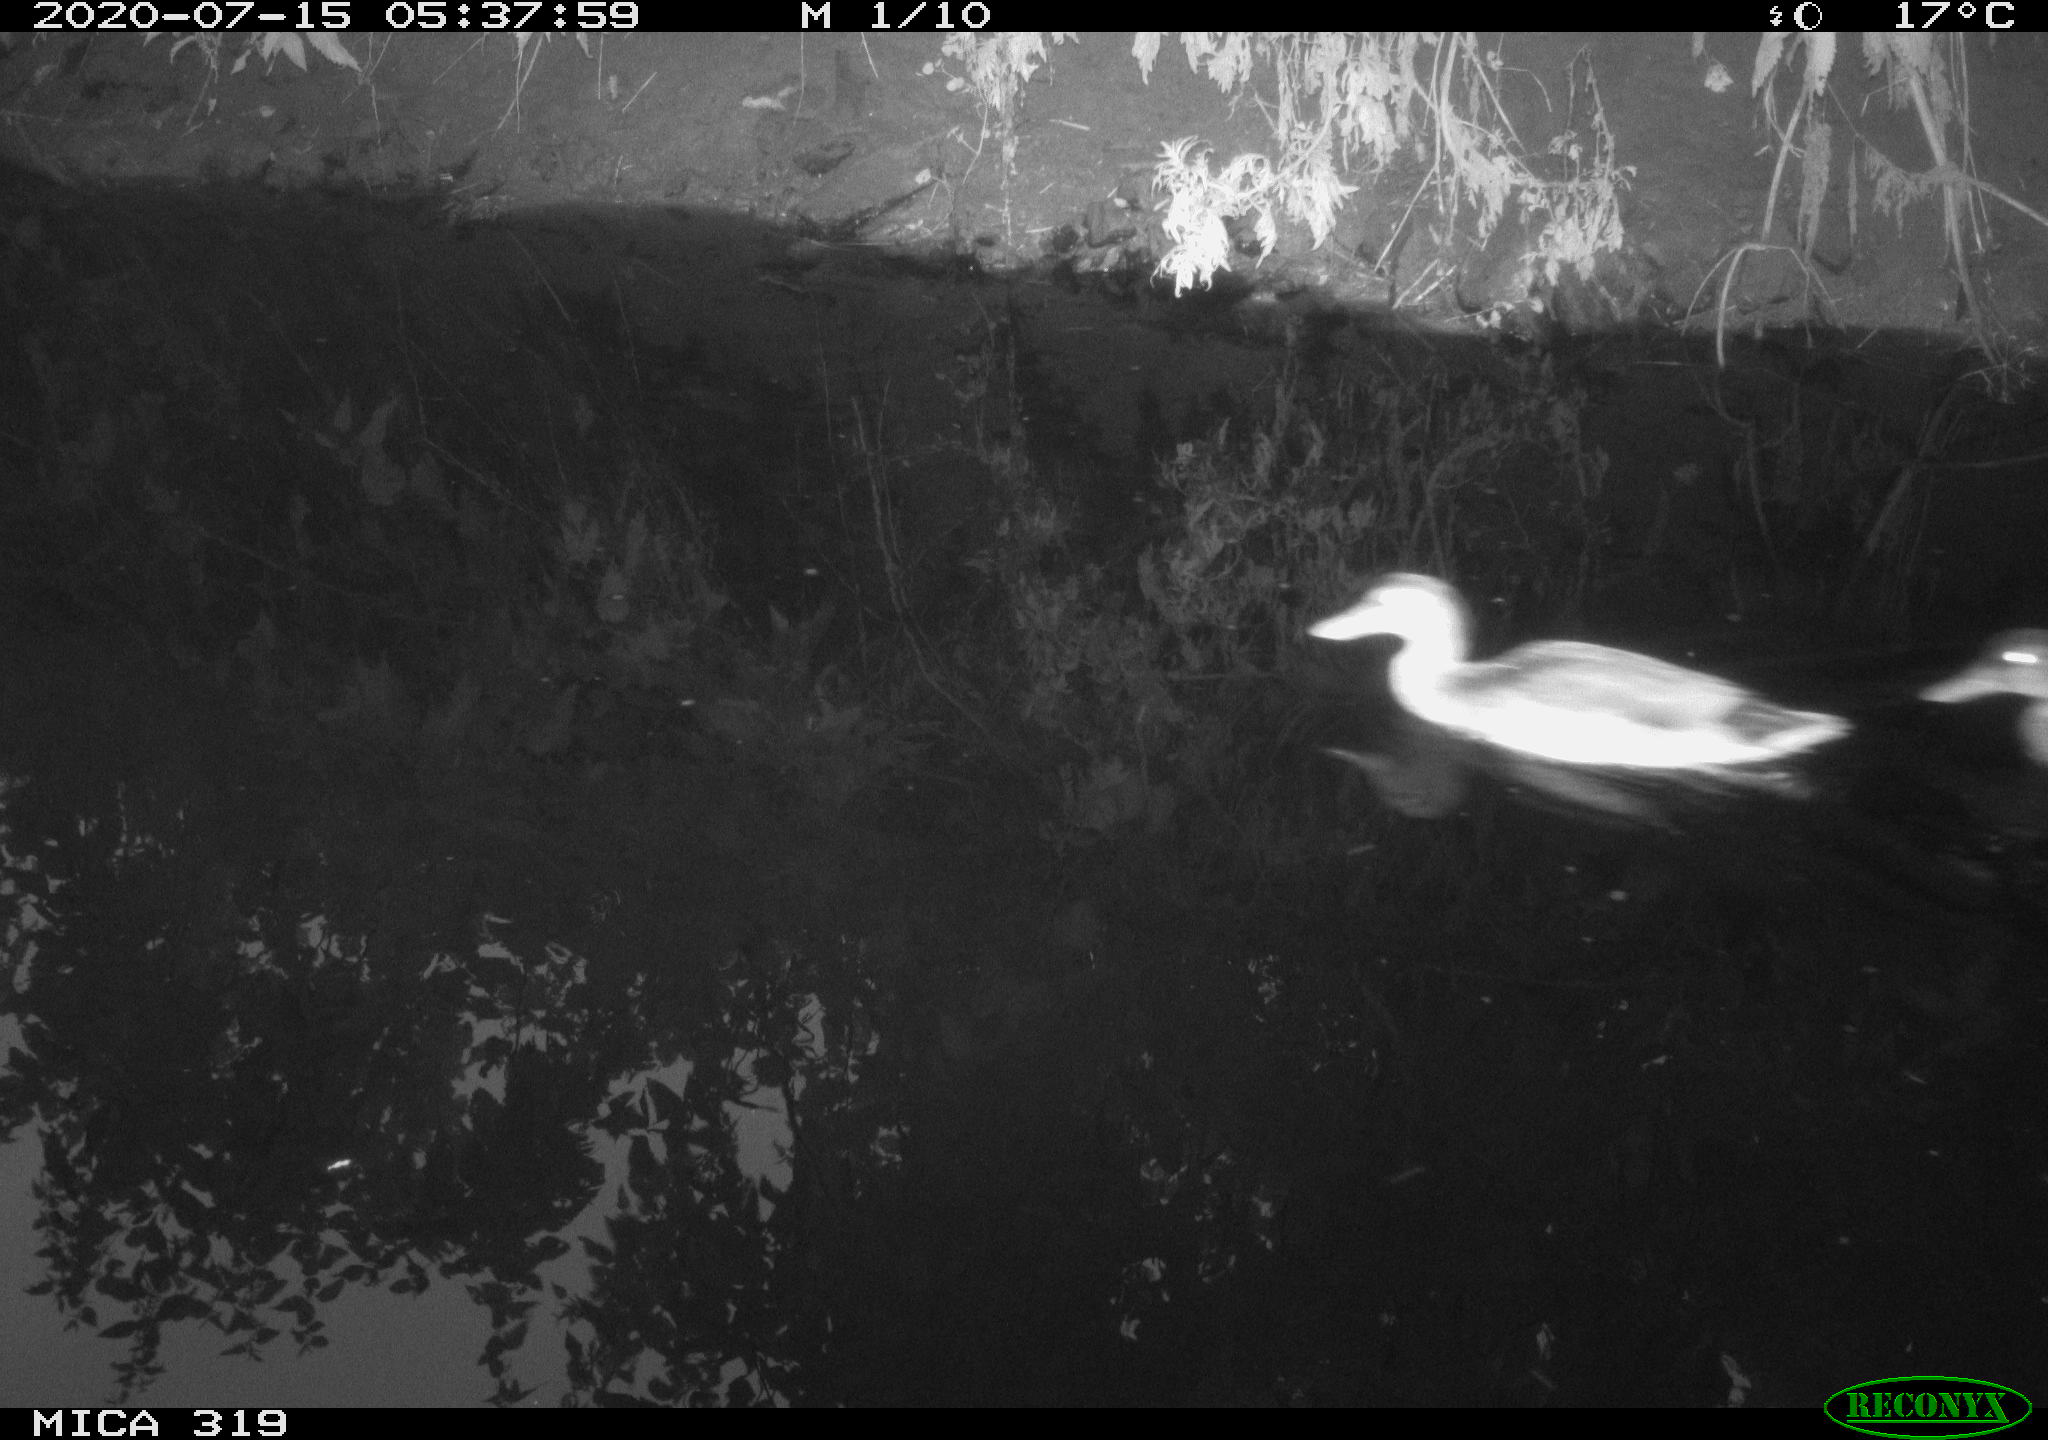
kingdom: Animalia
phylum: Chordata
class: Aves
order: Anseriformes
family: Anatidae
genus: Anas
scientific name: Anas platyrhynchos
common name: Mallard
